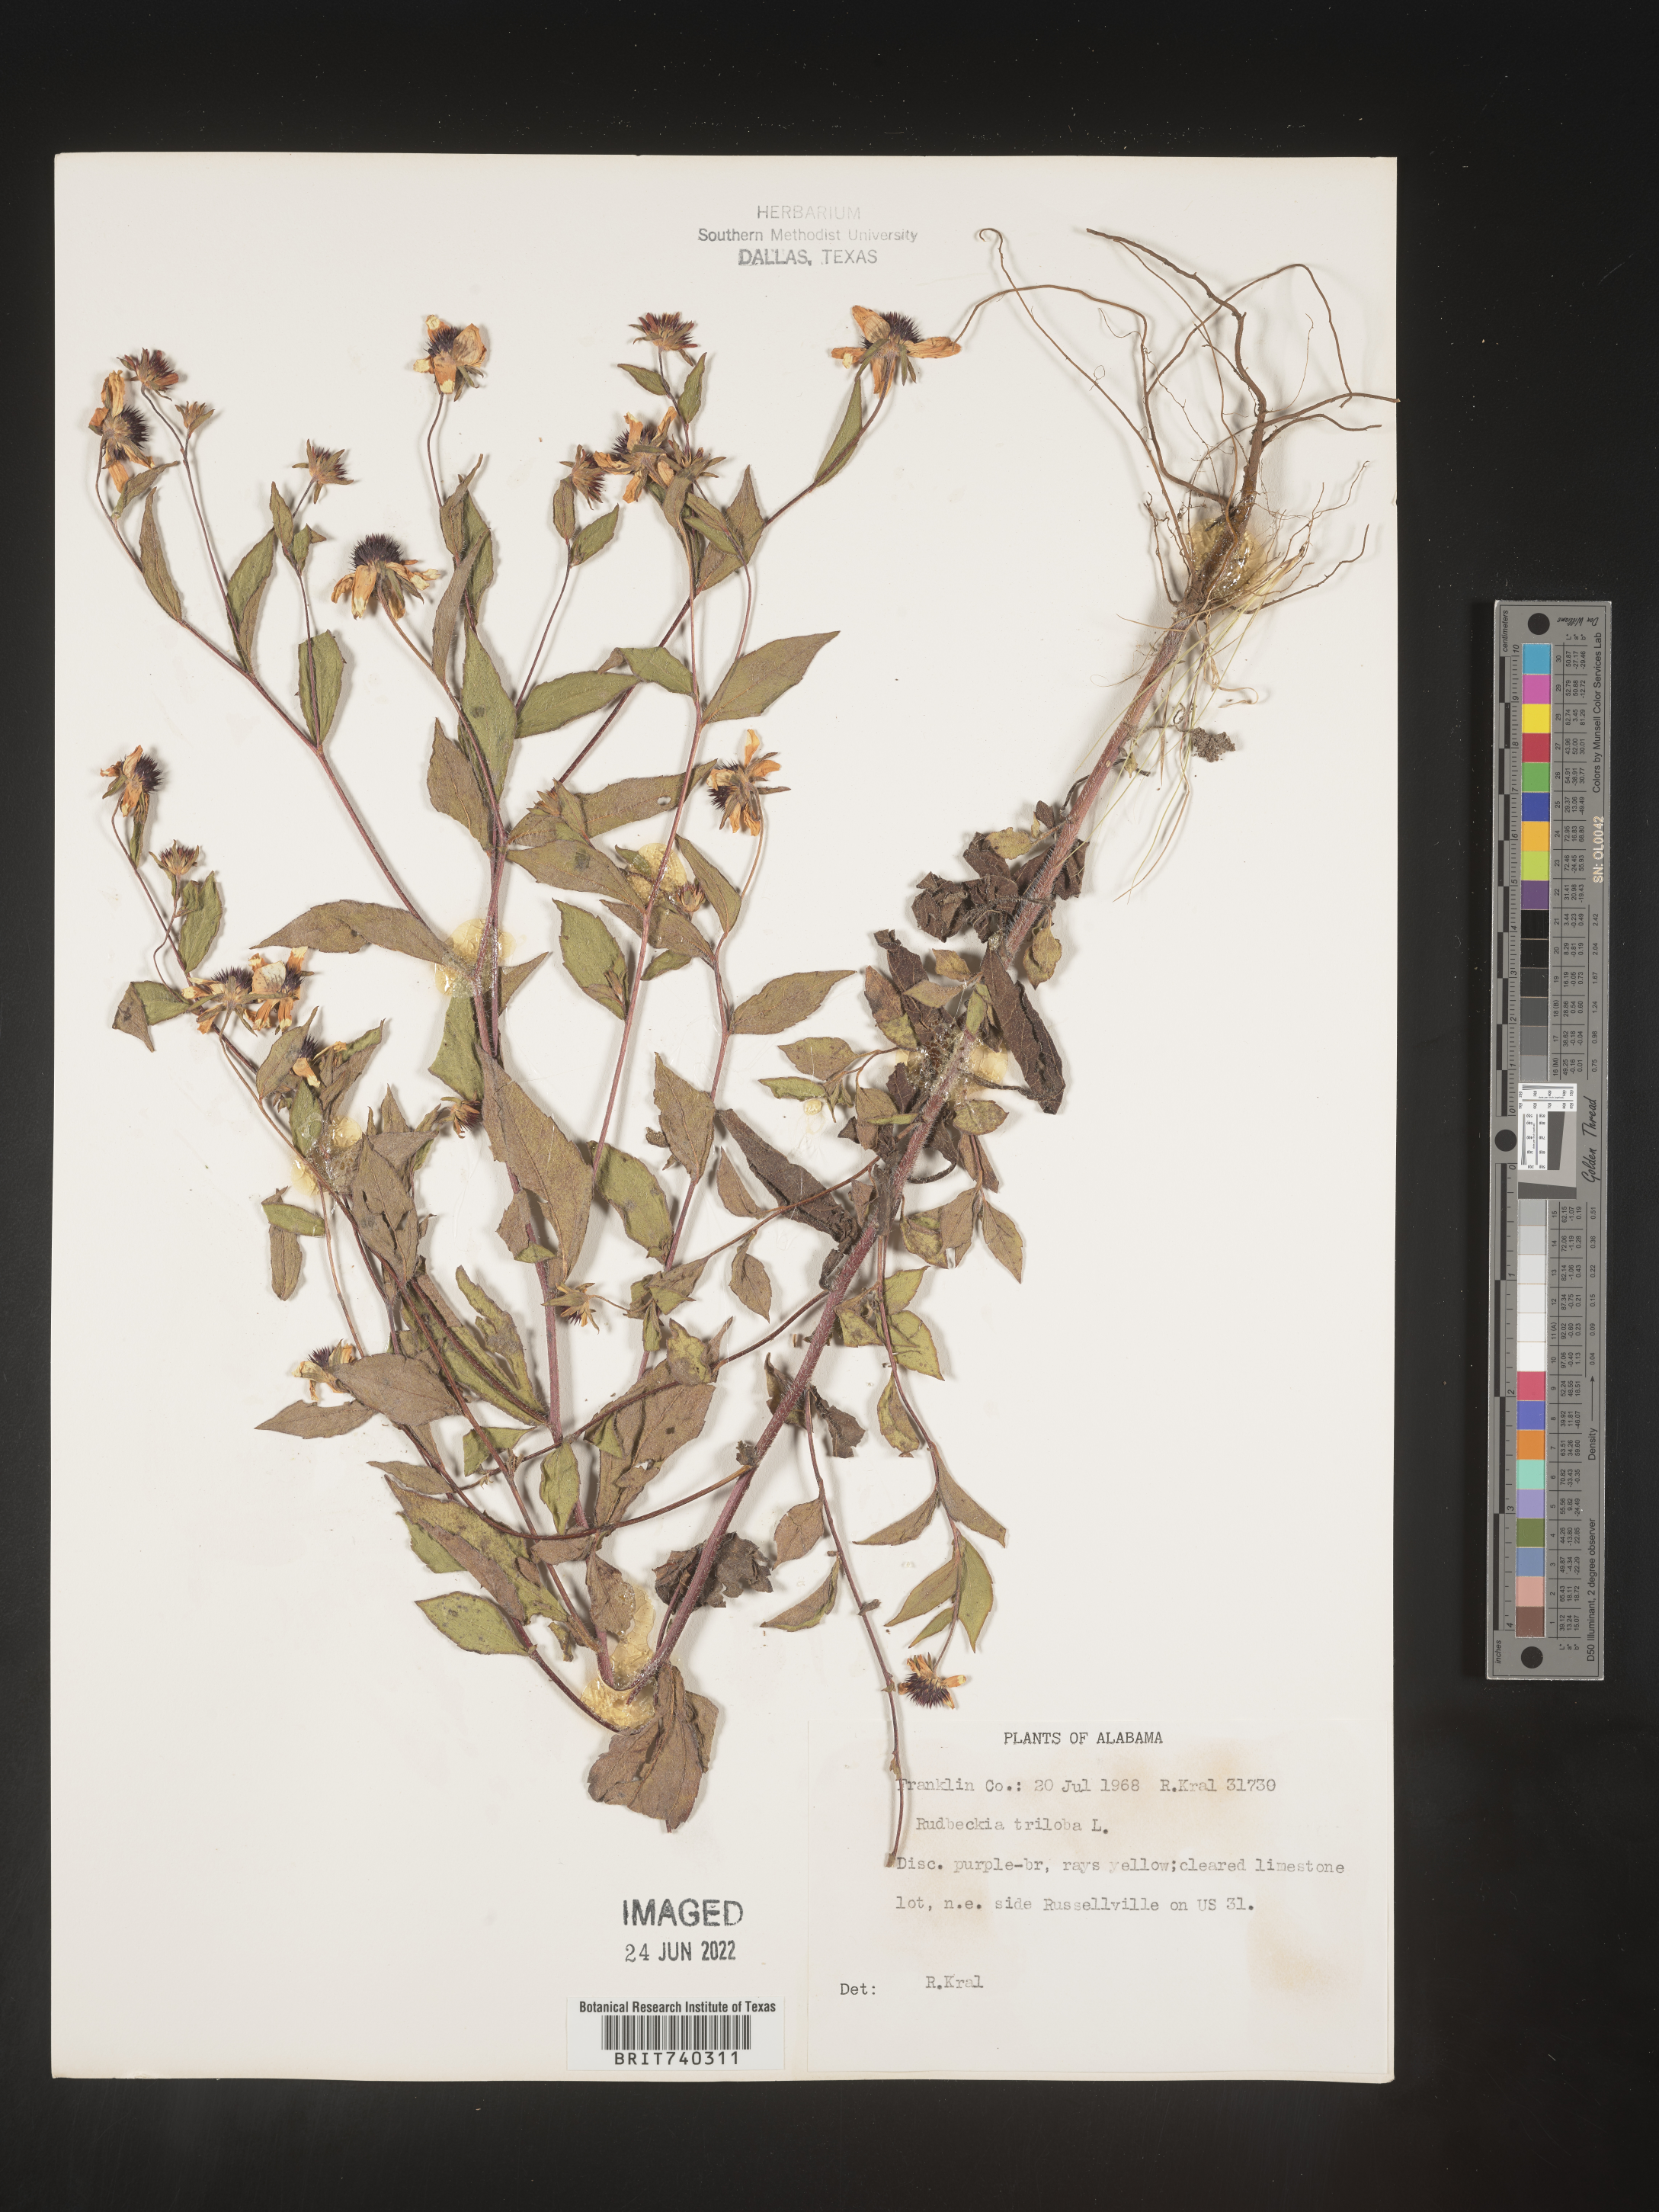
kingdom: Plantae
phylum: Tracheophyta
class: Magnoliopsida
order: Asterales
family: Asteraceae
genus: Rudbeckia
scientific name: Rudbeckia triloba
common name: Thin-leaved coneflower
